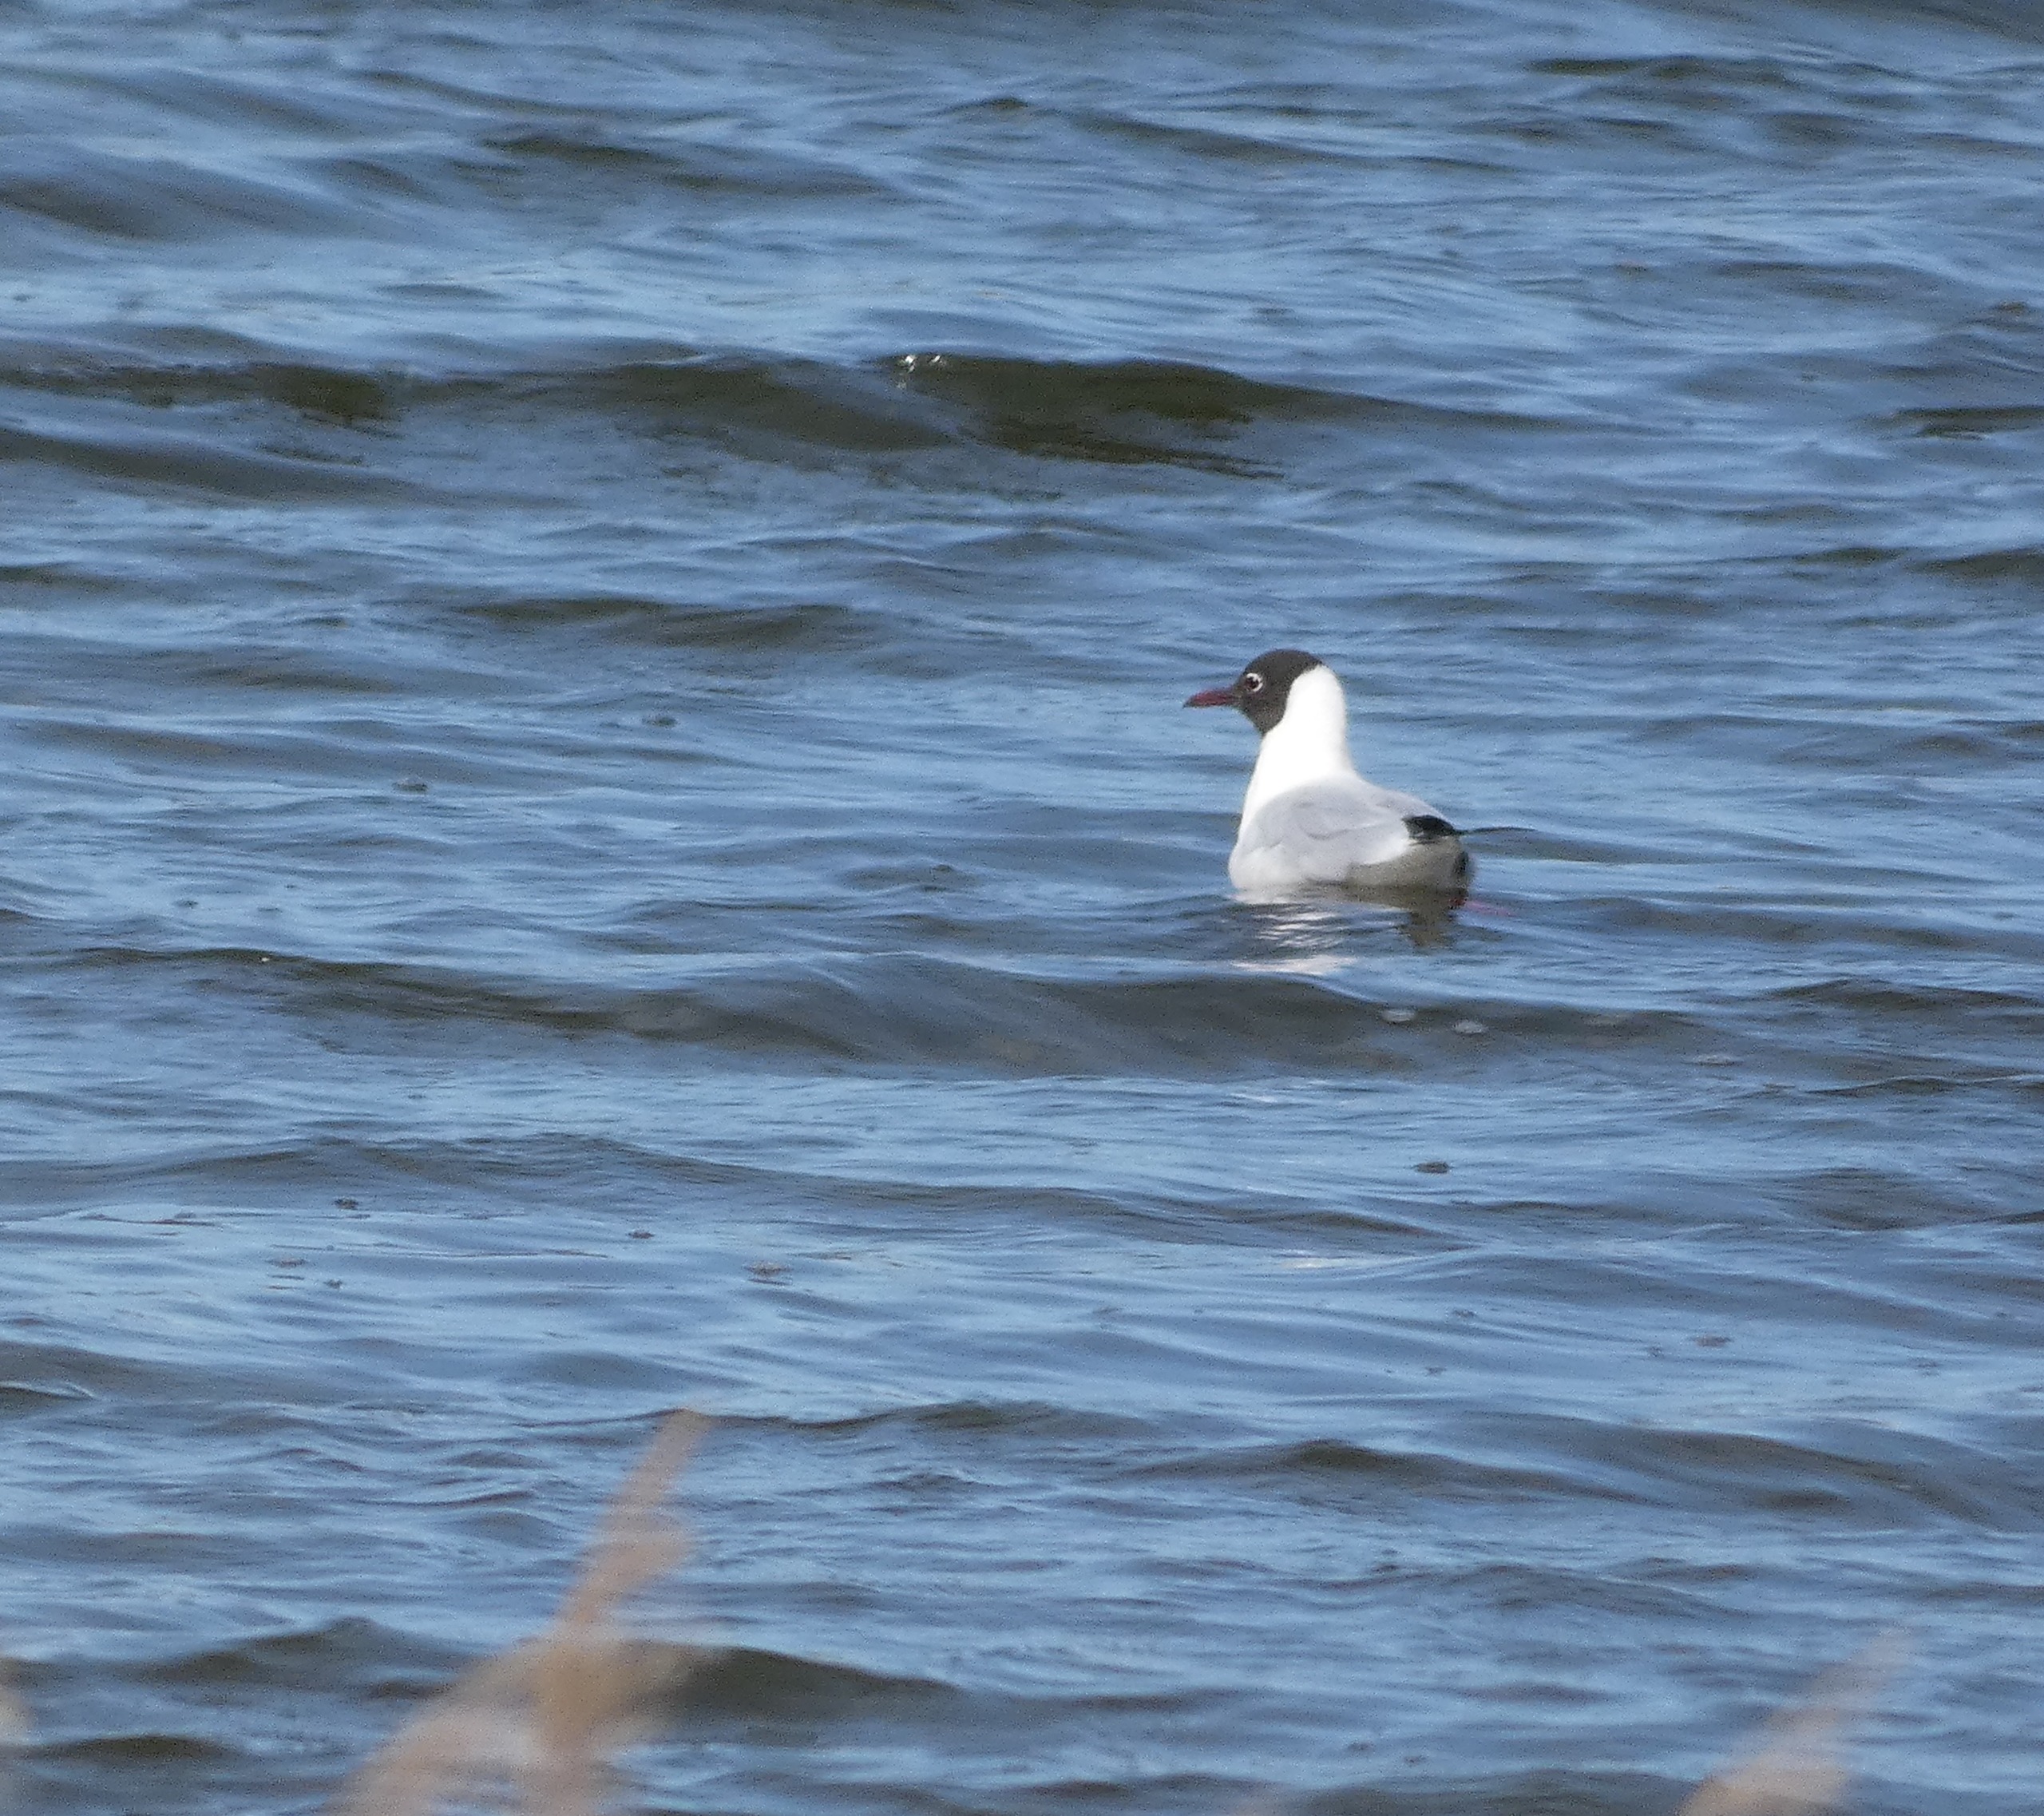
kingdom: Animalia
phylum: Chordata
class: Aves
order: Charadriiformes
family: Laridae
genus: Chroicocephalus
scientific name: Chroicocephalus ridibundus
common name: Hættemåge
